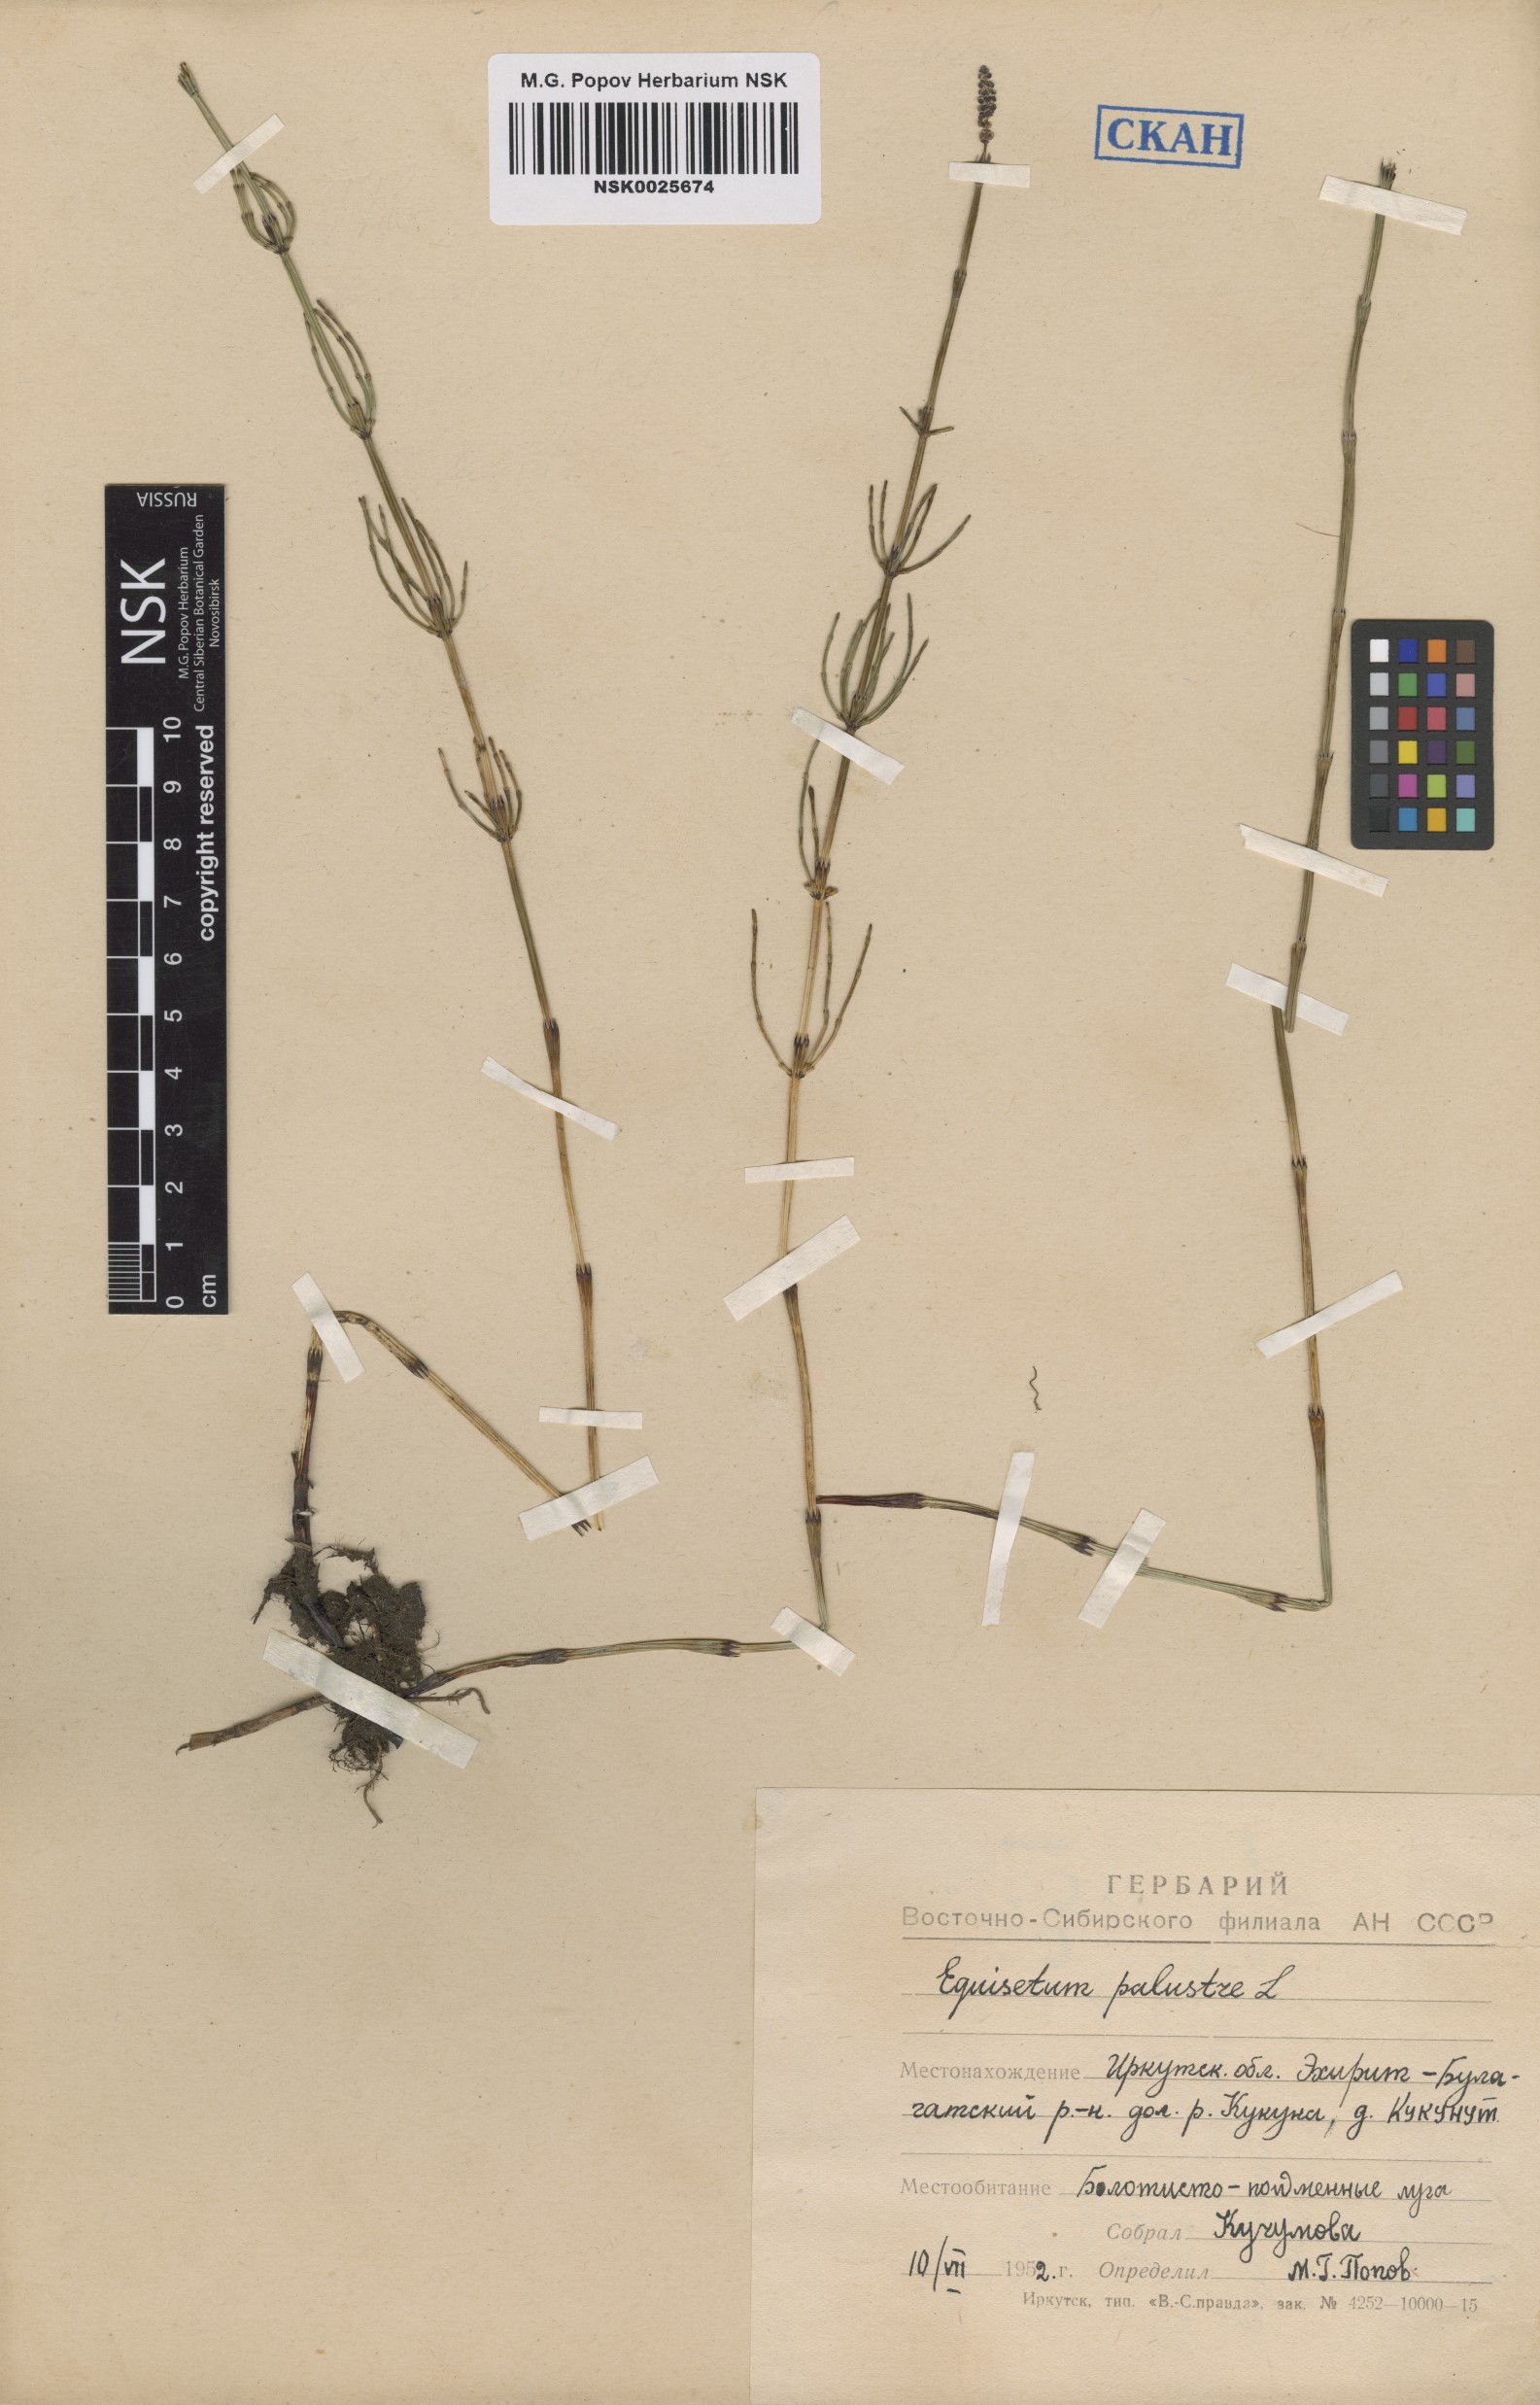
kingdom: Plantae
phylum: Tracheophyta
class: Polypodiopsida
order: Equisetales
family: Equisetaceae
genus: Equisetum
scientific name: Equisetum palustre
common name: Marsh horsetail
